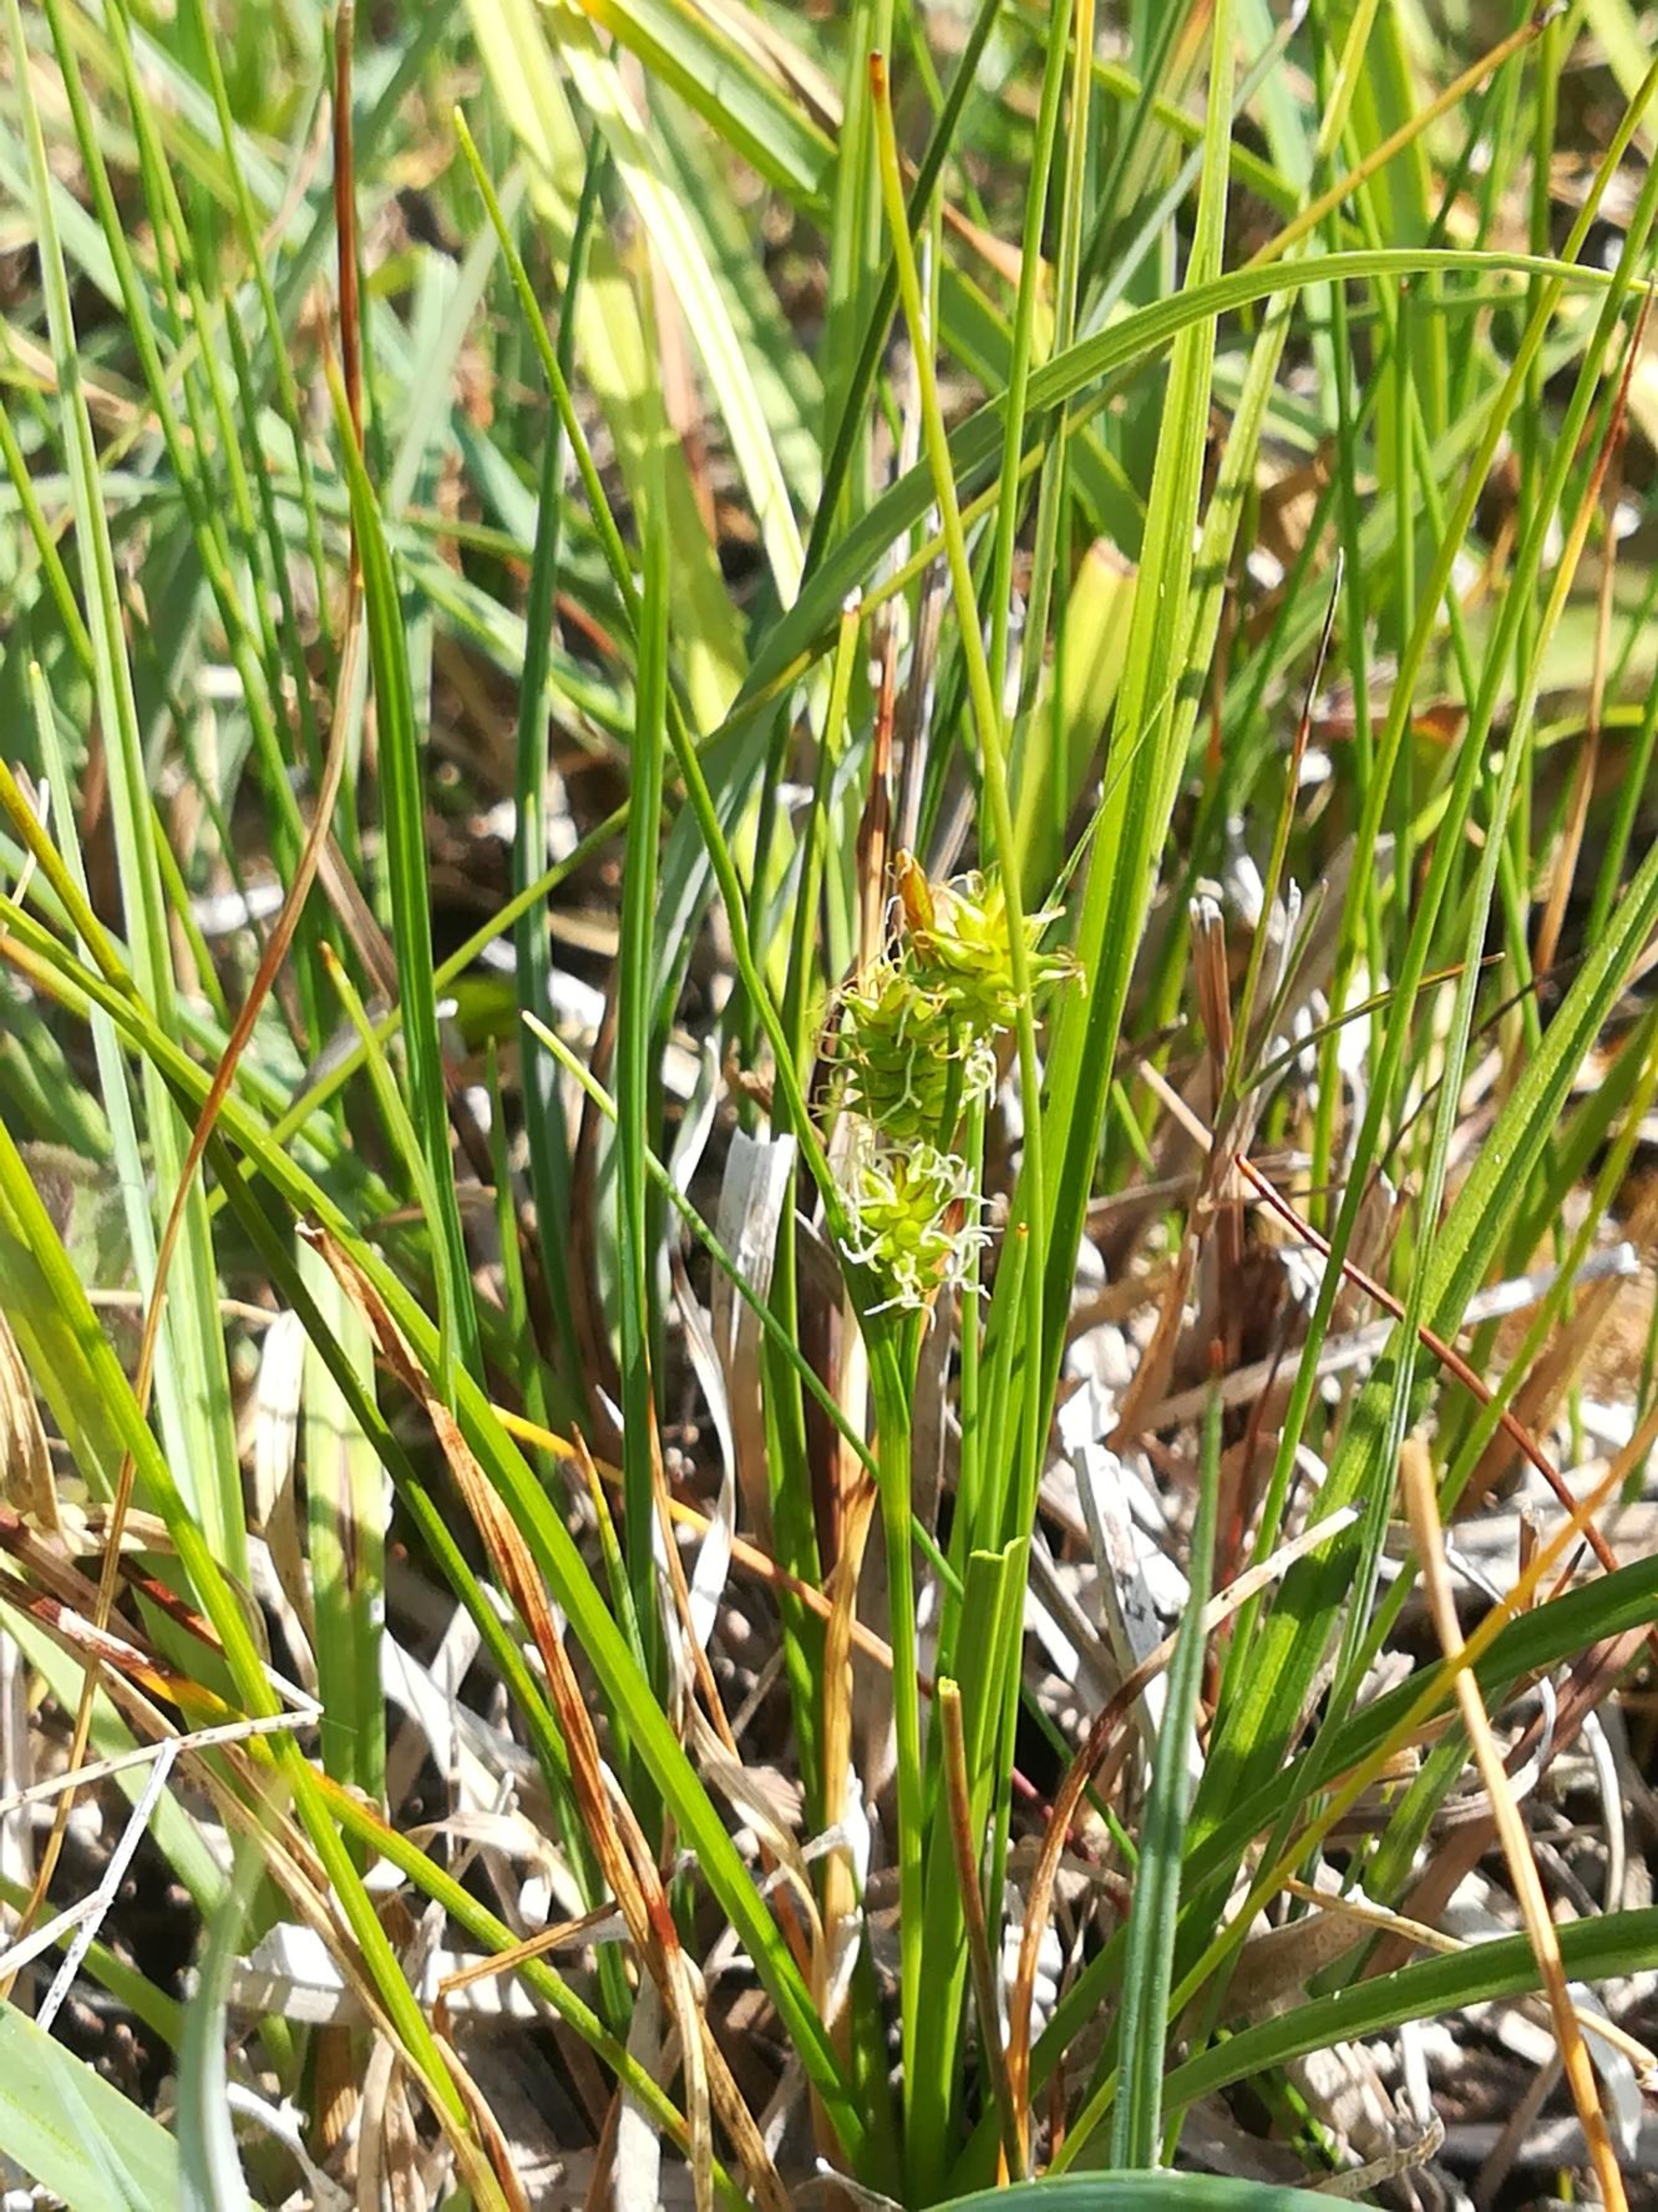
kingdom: Plantae
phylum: Tracheophyta
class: Liliopsida
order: Poales
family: Cyperaceae
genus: Carex
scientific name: Carex oederi
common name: Dværg-star
